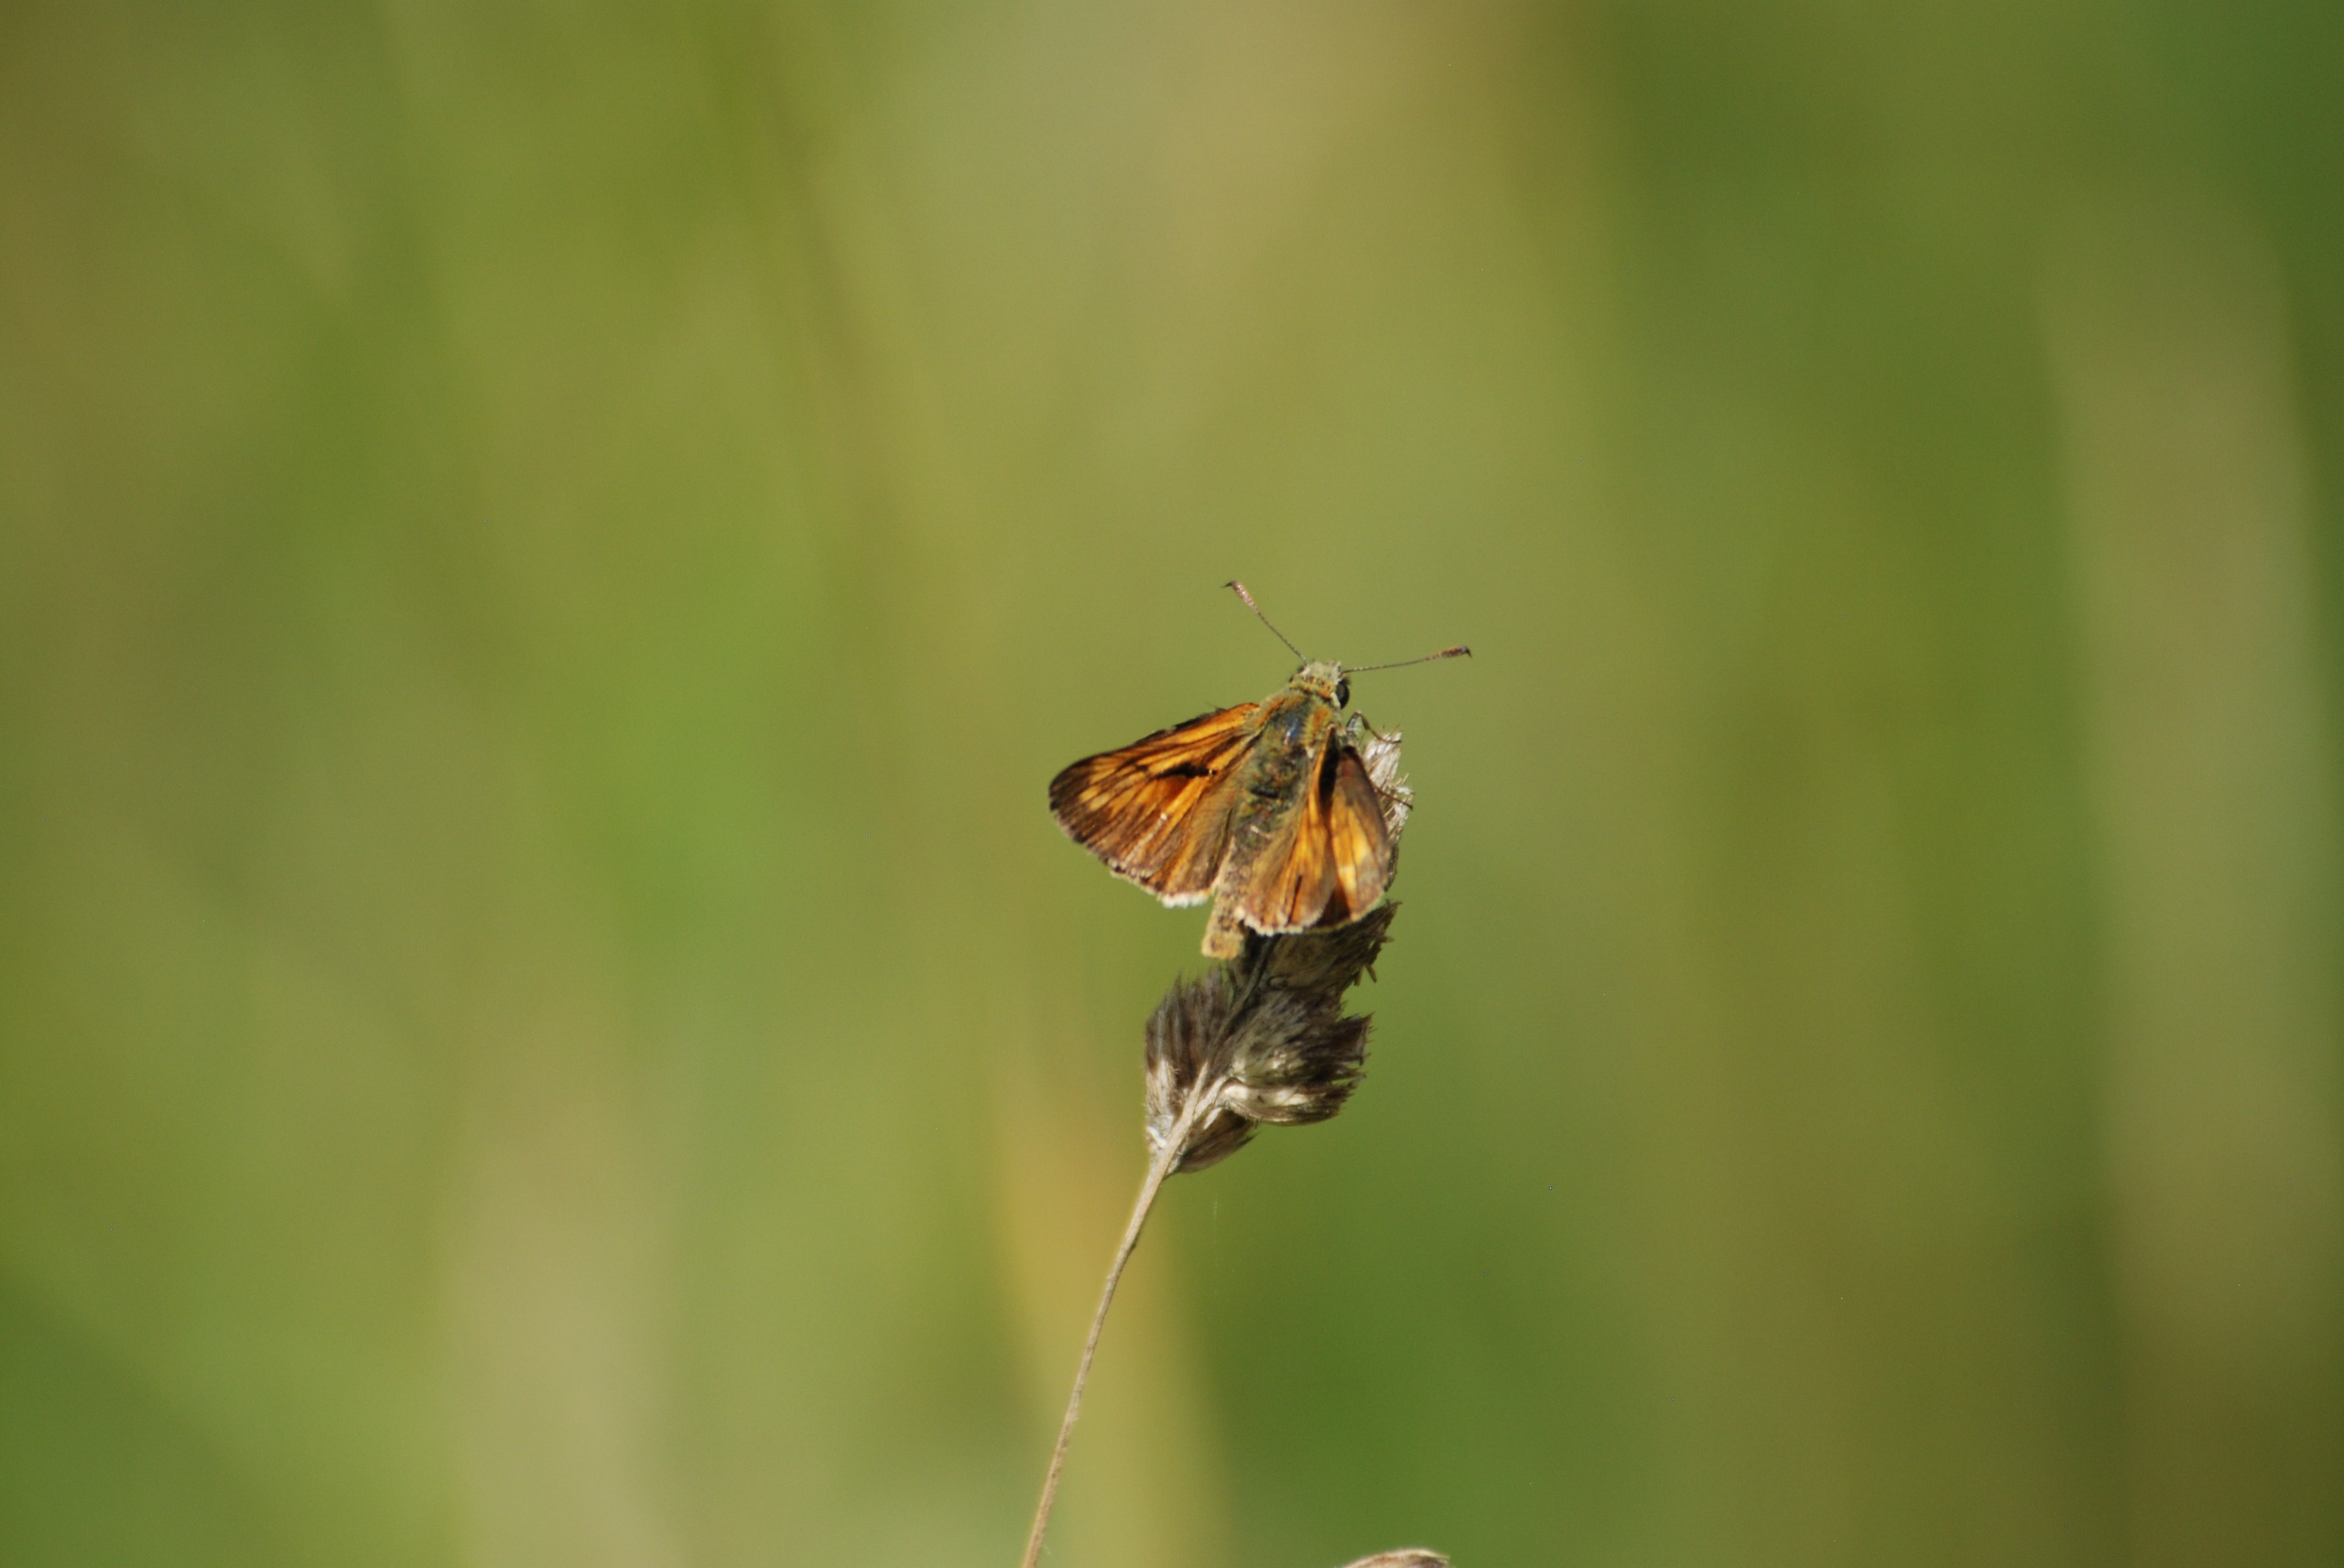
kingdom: Animalia
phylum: Arthropoda
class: Insecta
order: Lepidoptera
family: Hesperiidae
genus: Ochlodes
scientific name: Ochlodes venata
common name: Stor bredpande
